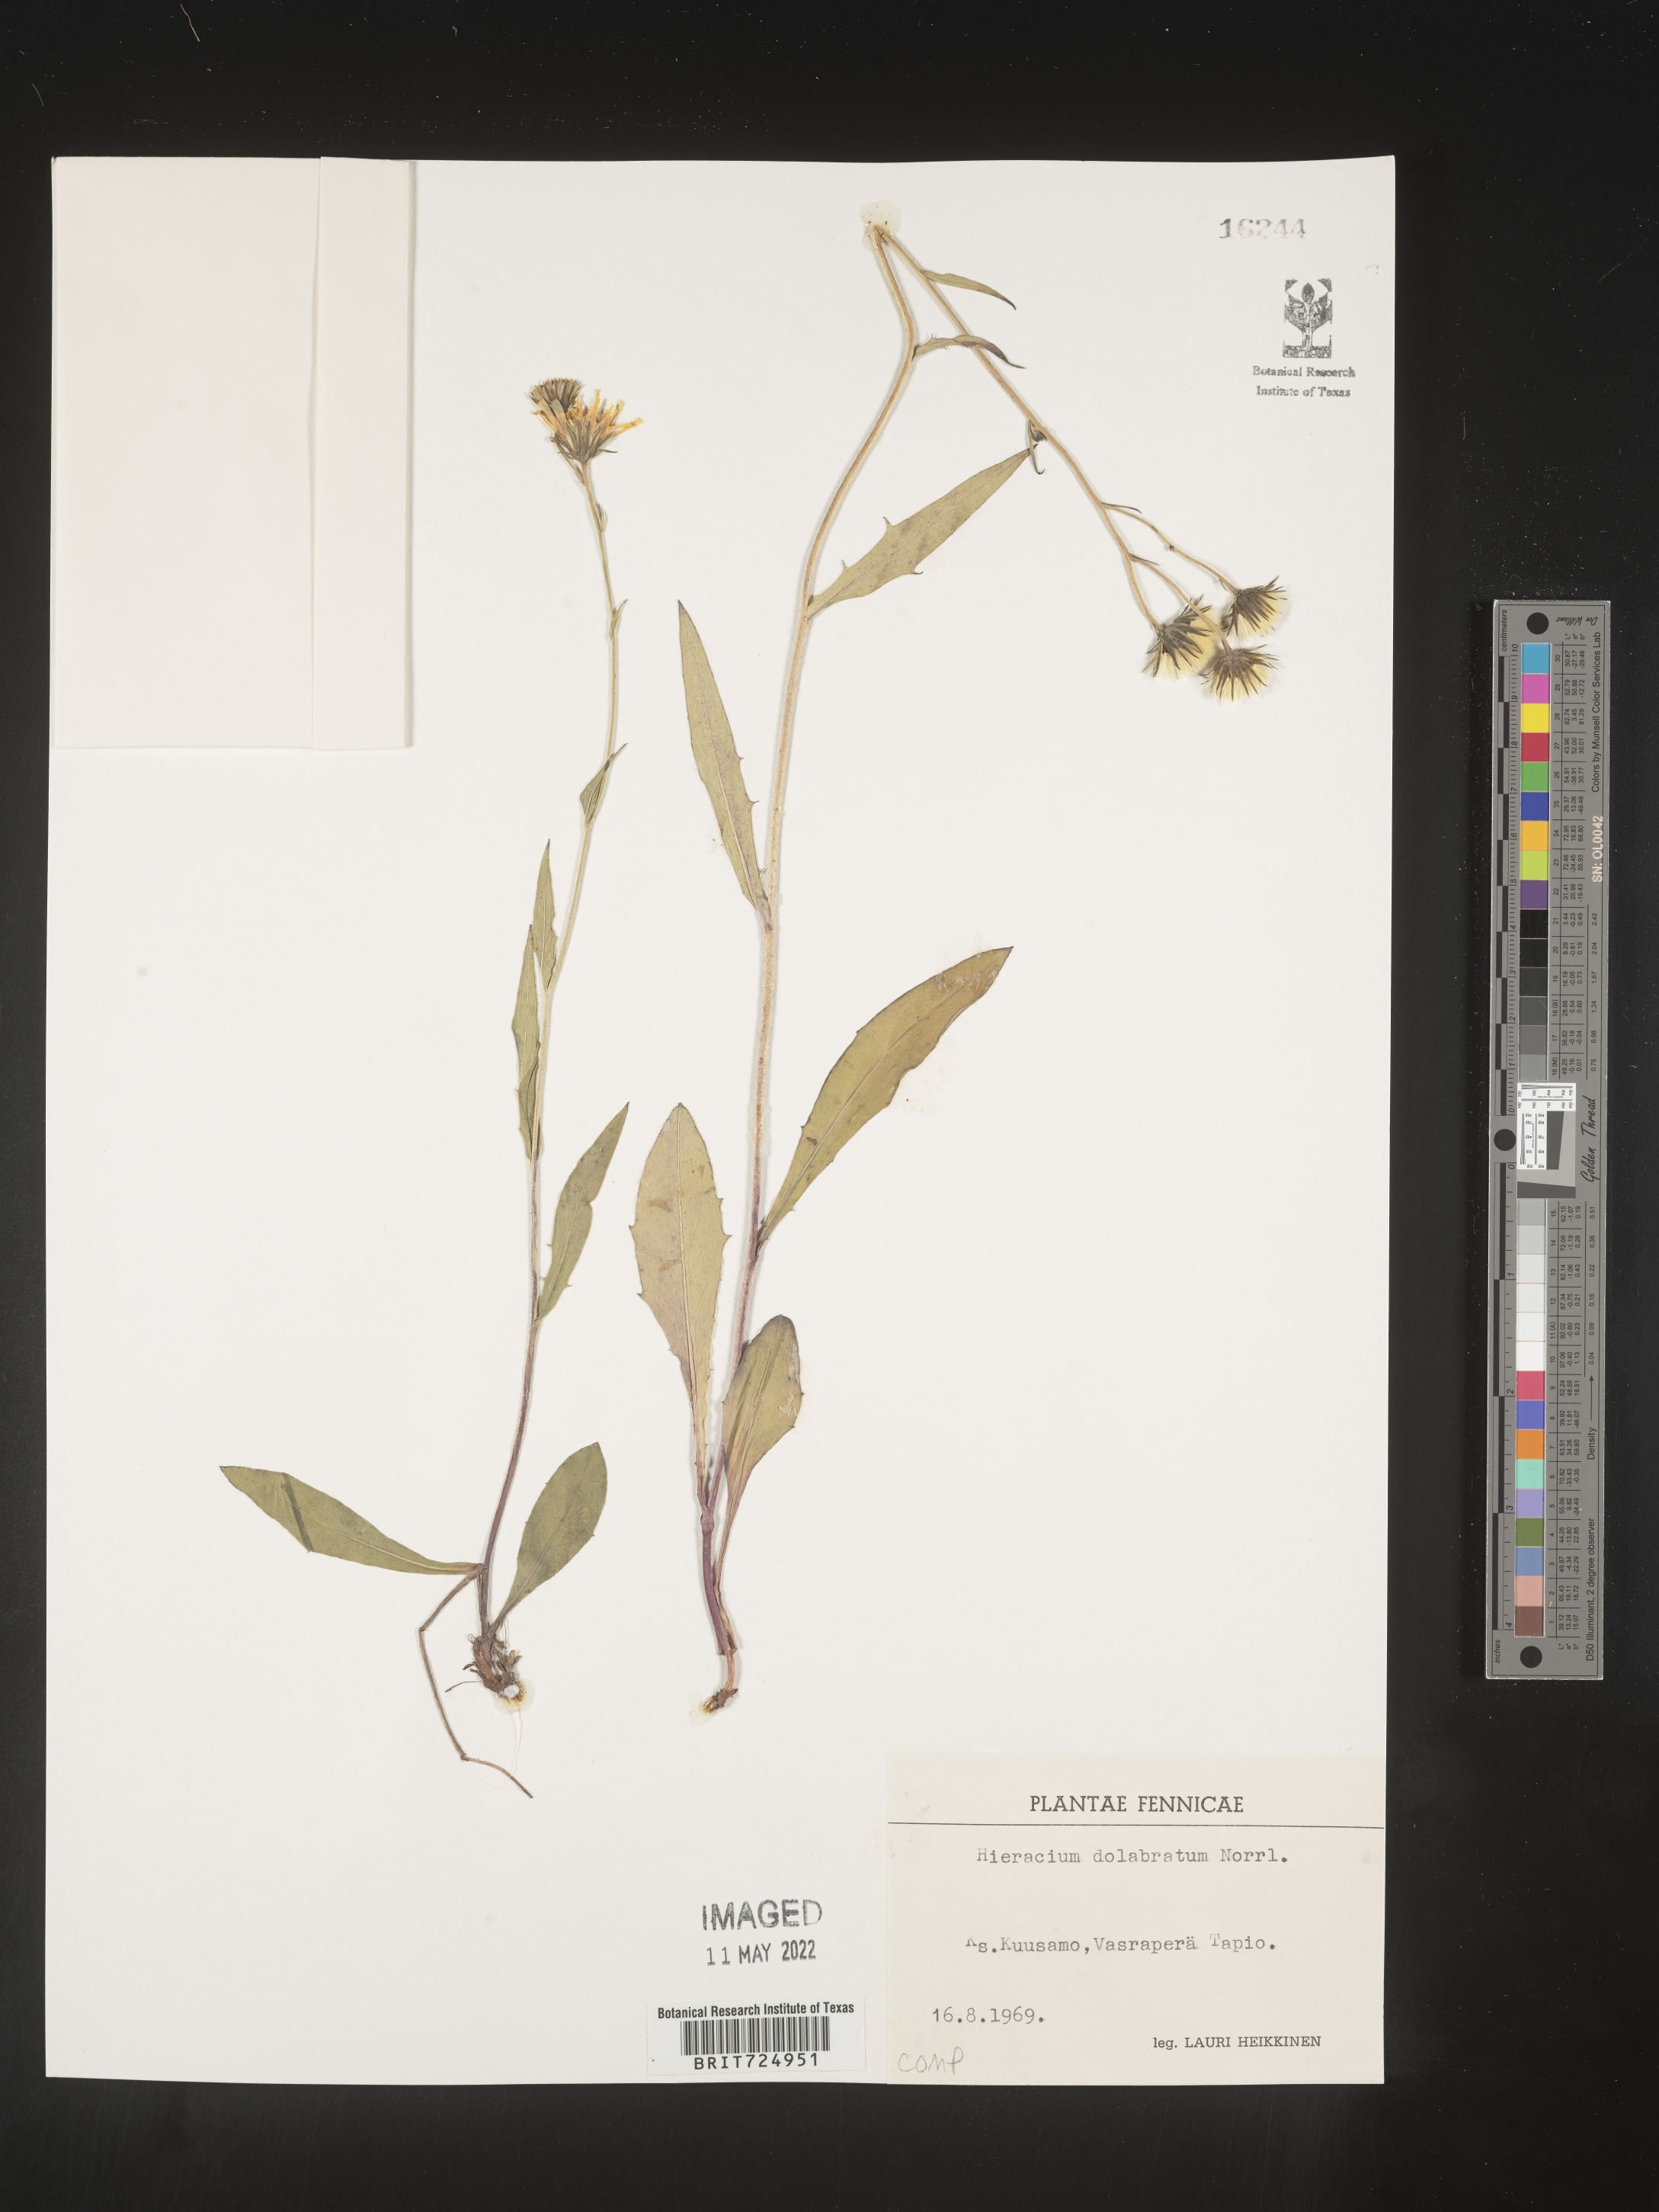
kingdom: Plantae
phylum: Tracheophyta
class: Magnoliopsida
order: Asterales
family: Asteraceae
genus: Hieracium
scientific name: Hieracium
